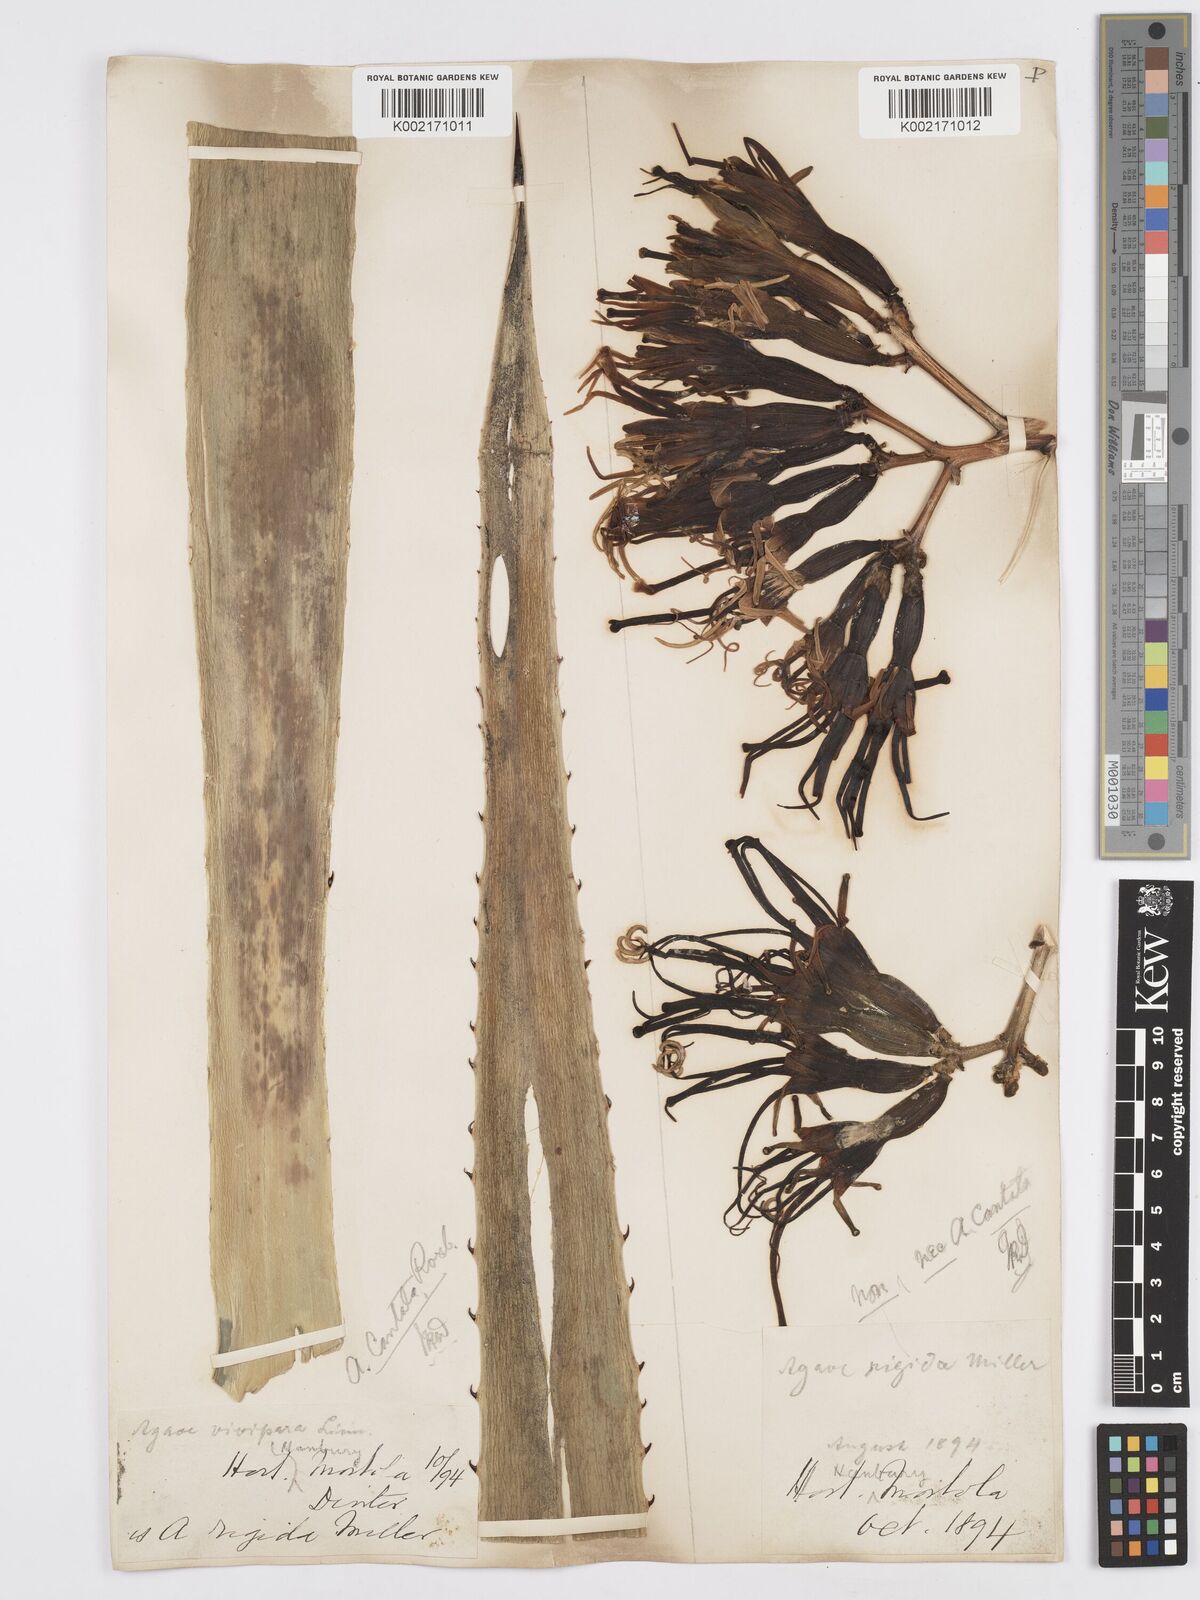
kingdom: Plantae
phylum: Tracheophyta
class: Liliopsida
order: Asparagales
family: Asparagaceae
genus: Agave
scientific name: Agave americana
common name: Centuryplant
